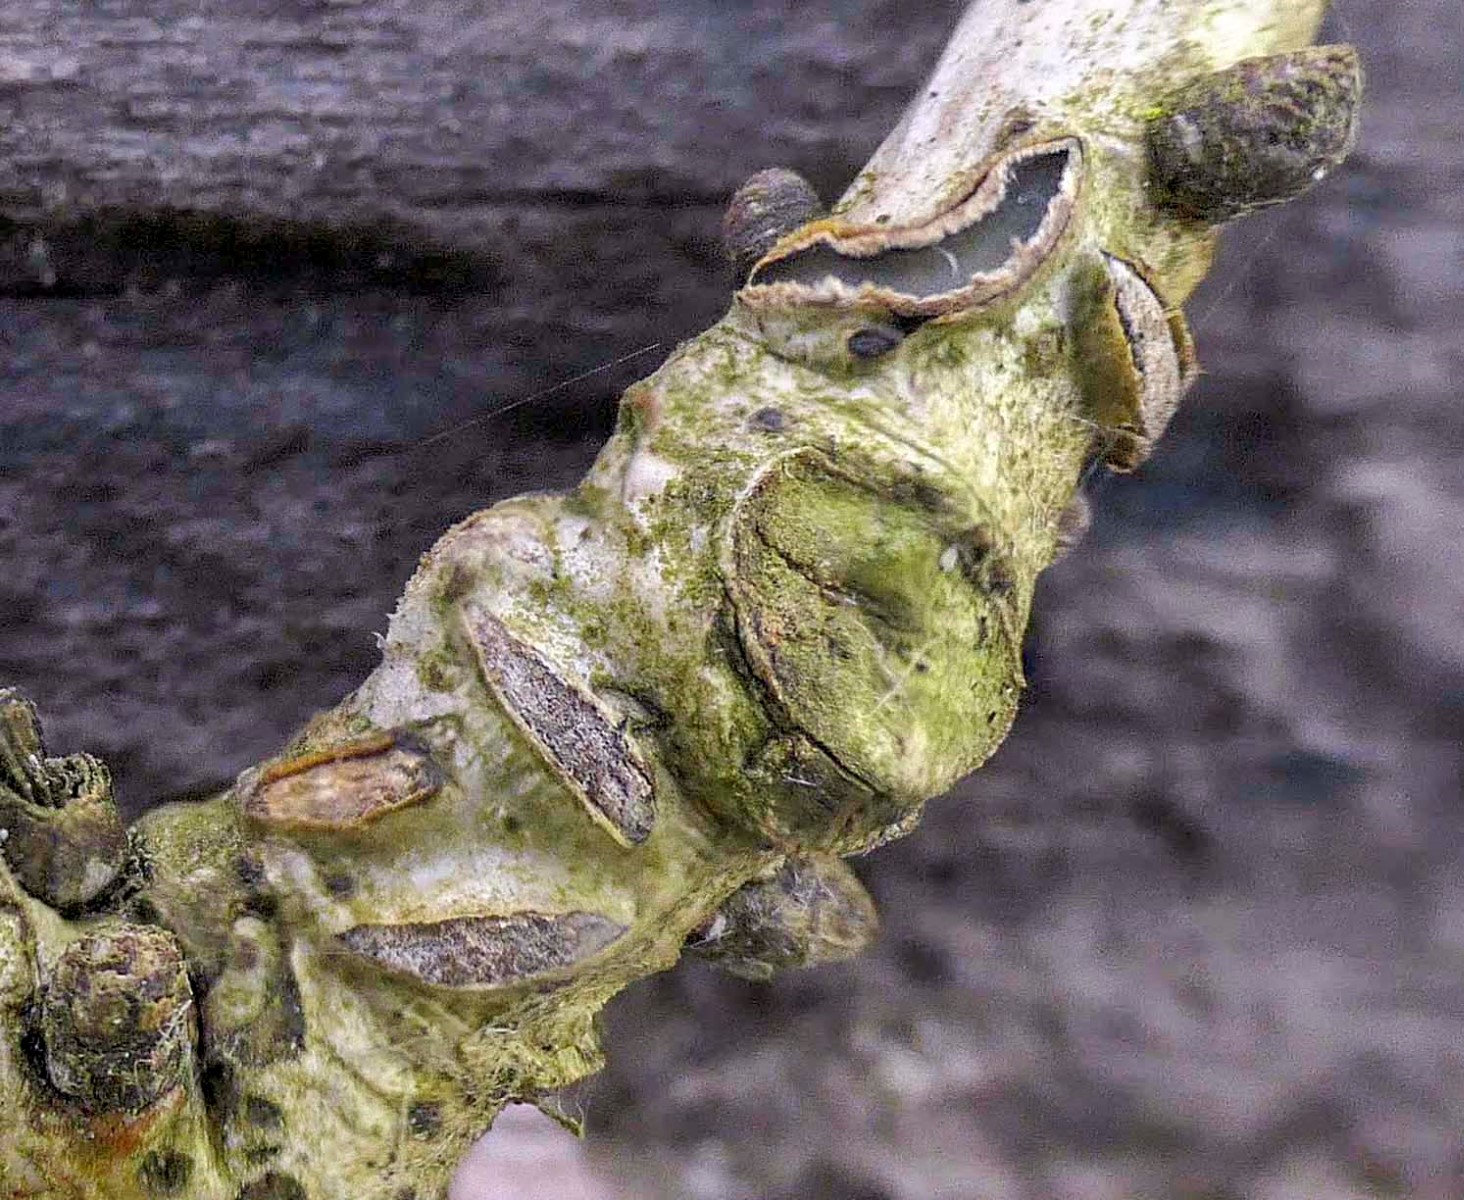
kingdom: Fungi
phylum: Ascomycota
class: Leotiomycetes
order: Rhytismatales
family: Rhytismataceae
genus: Colpoma
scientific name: Colpoma quercinum
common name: ege-sprækkeskive
